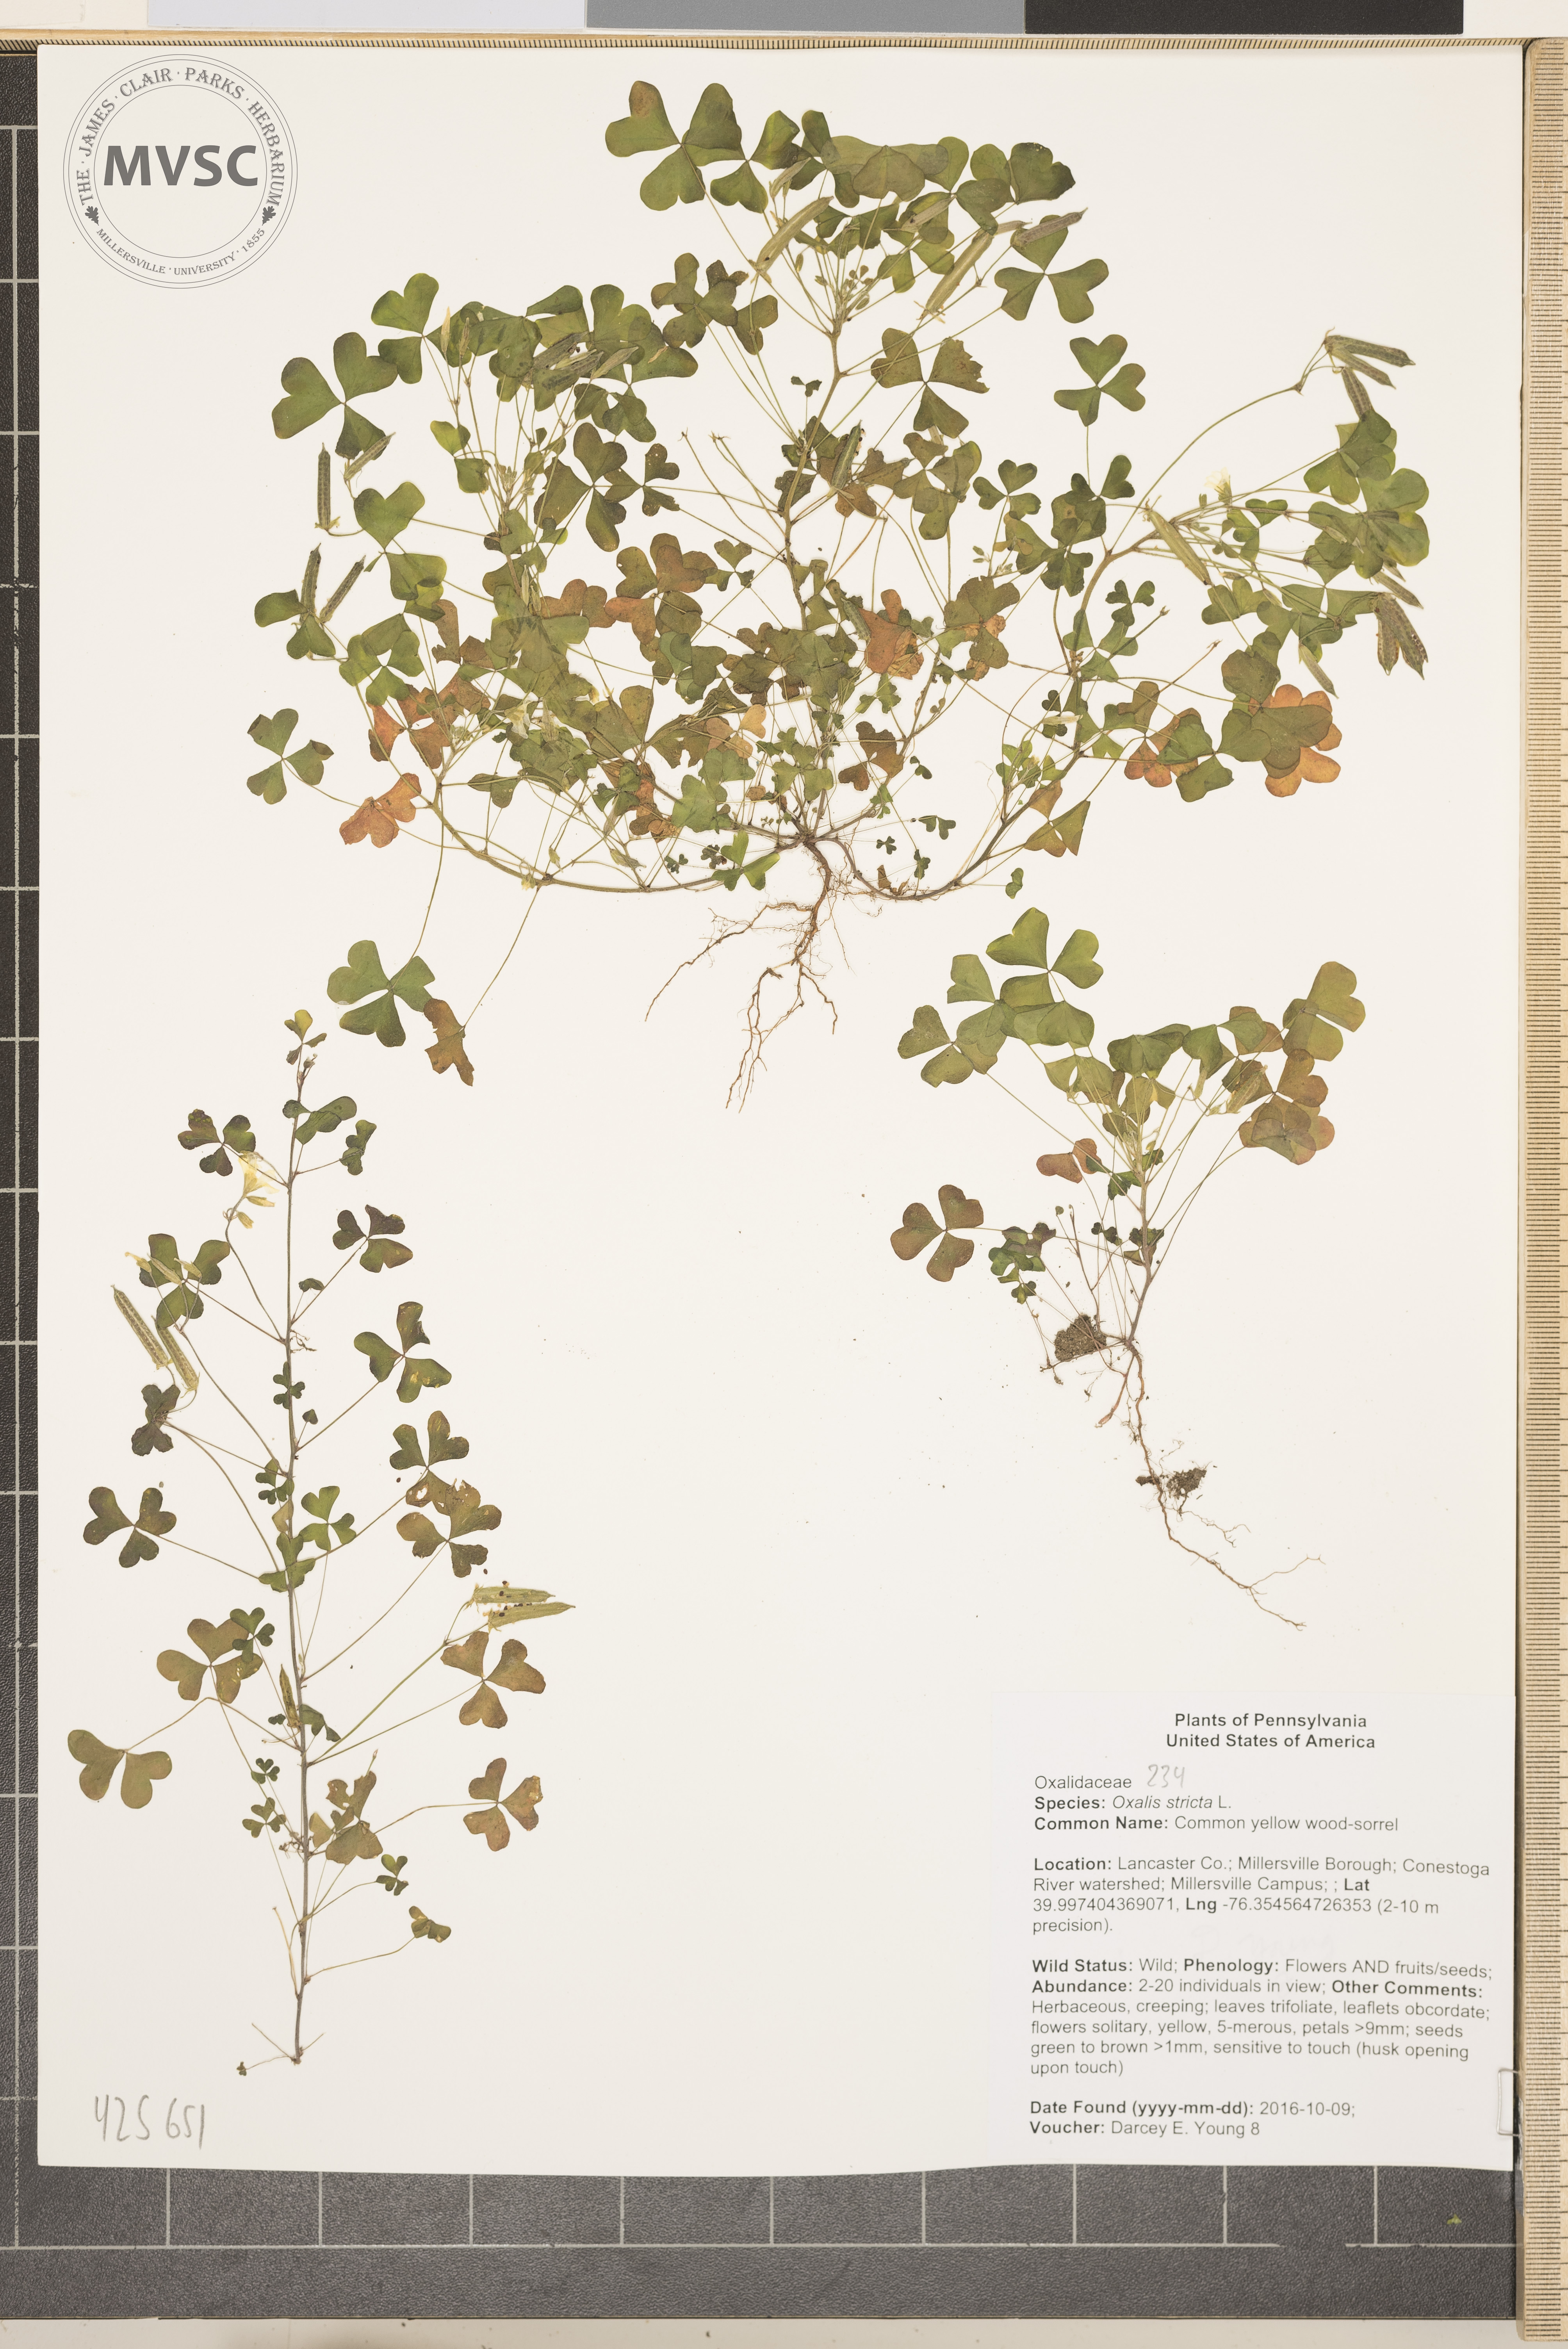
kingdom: Plantae
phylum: Tracheophyta
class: Magnoliopsida
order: Oxalidales
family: Oxalidaceae
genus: Oxalis
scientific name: Oxalis stricta
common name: Common yellow wood-sorrel
